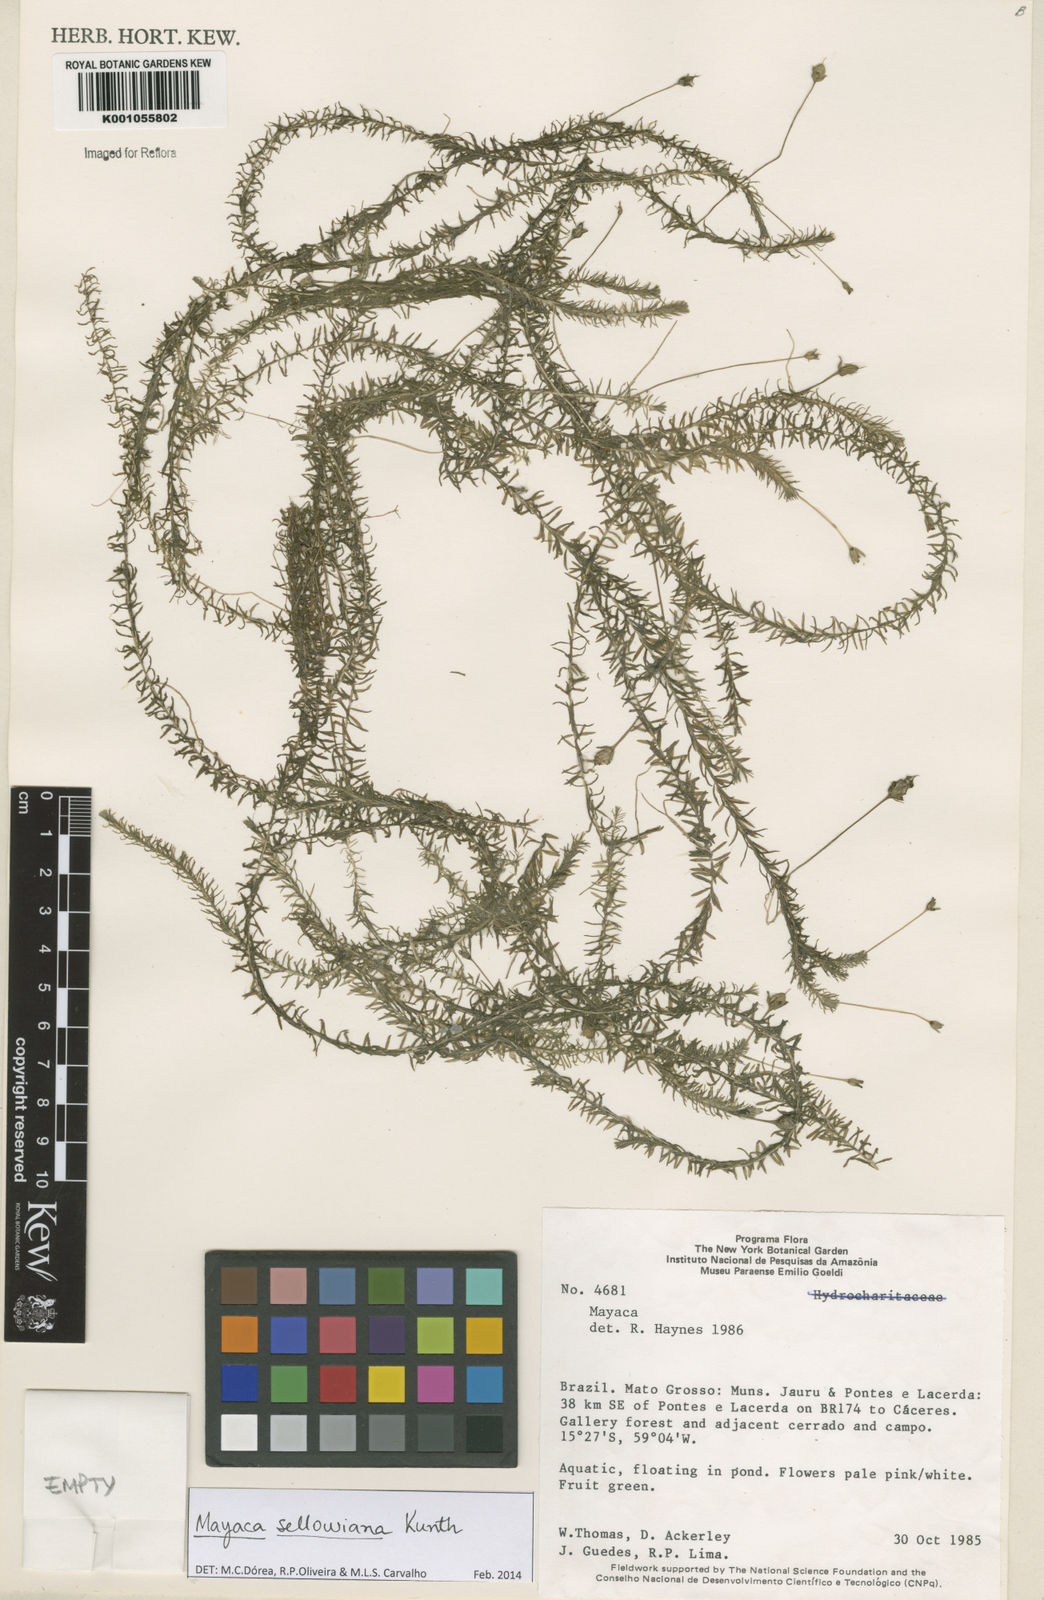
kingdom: Plantae
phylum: Tracheophyta
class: Liliopsida
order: Poales
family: Mayacaceae
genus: Mayaca
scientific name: Mayaca sellowiana
